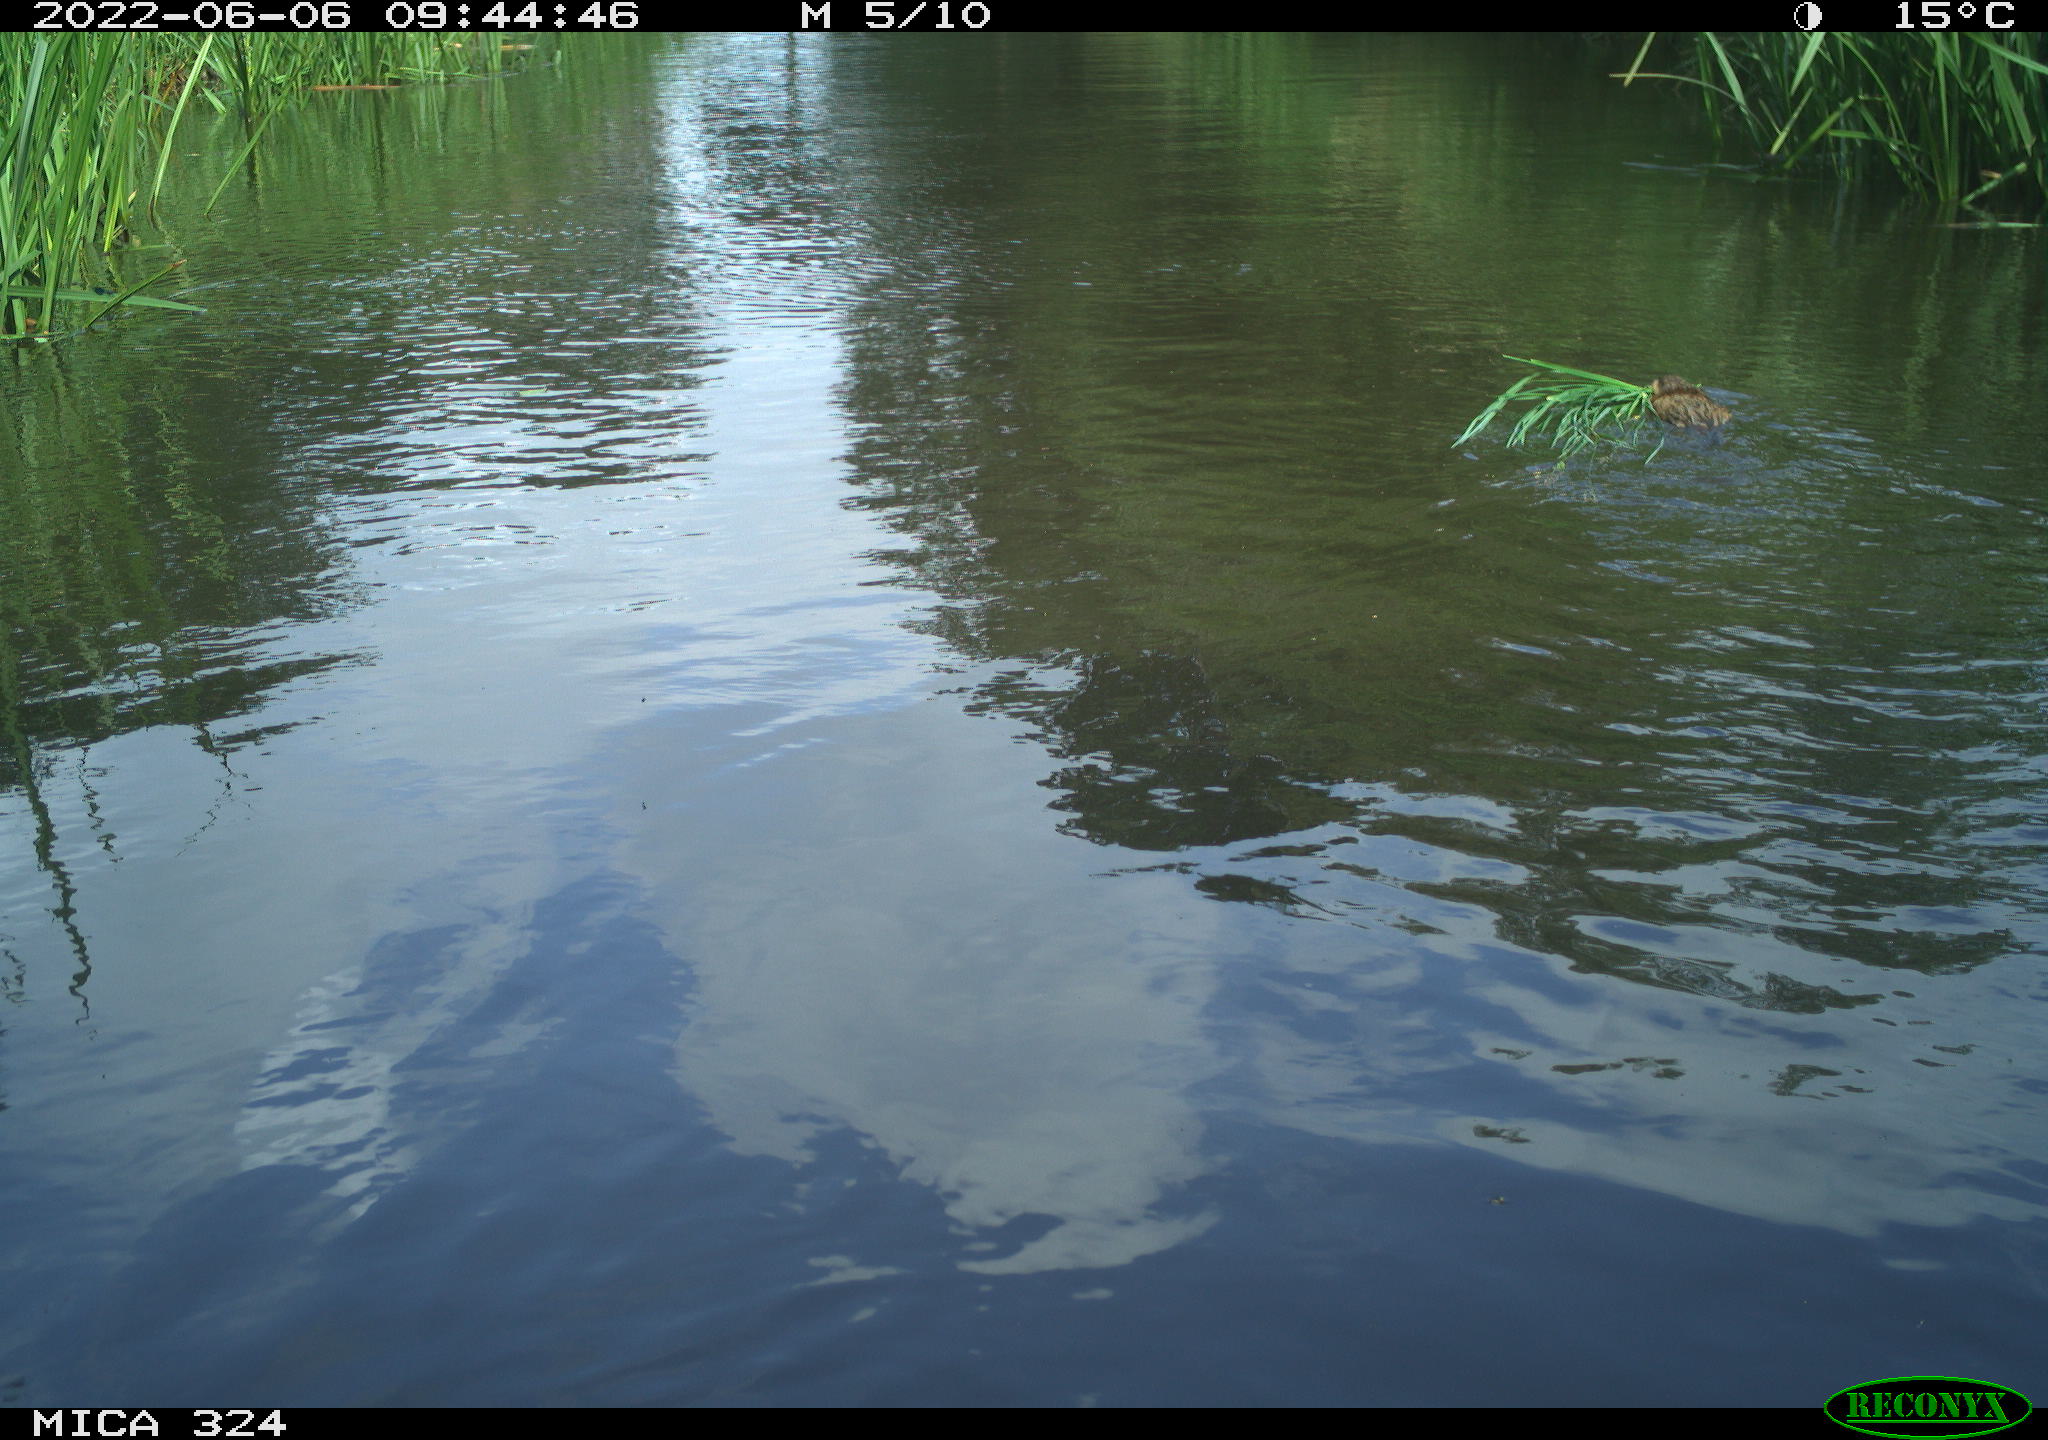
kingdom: Animalia
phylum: Chordata
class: Mammalia
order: Rodentia
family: Cricetidae
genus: Ondatra
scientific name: Ondatra zibethicus
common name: Muskrat
